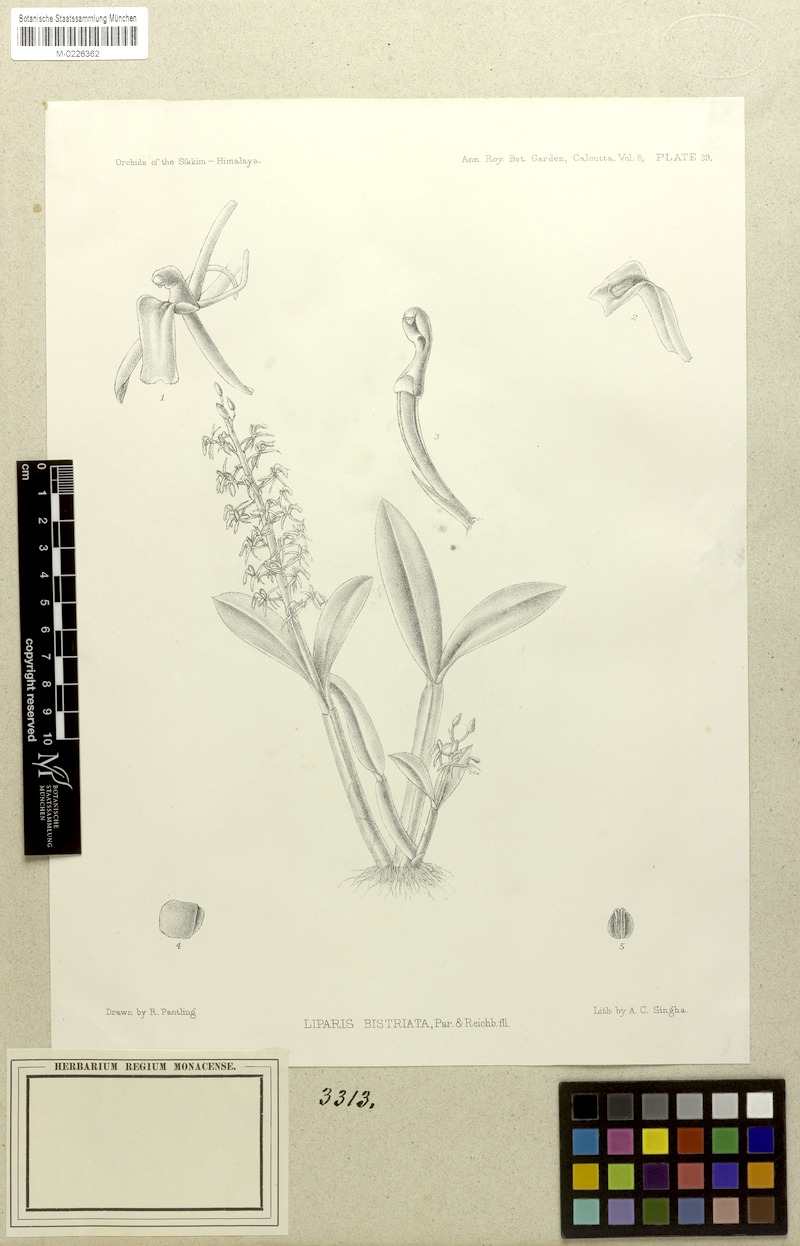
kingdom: Plantae
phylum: Tracheophyta
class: Liliopsida
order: Asparagales
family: Orchidaceae
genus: Liparis
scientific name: Liparis bistriata
